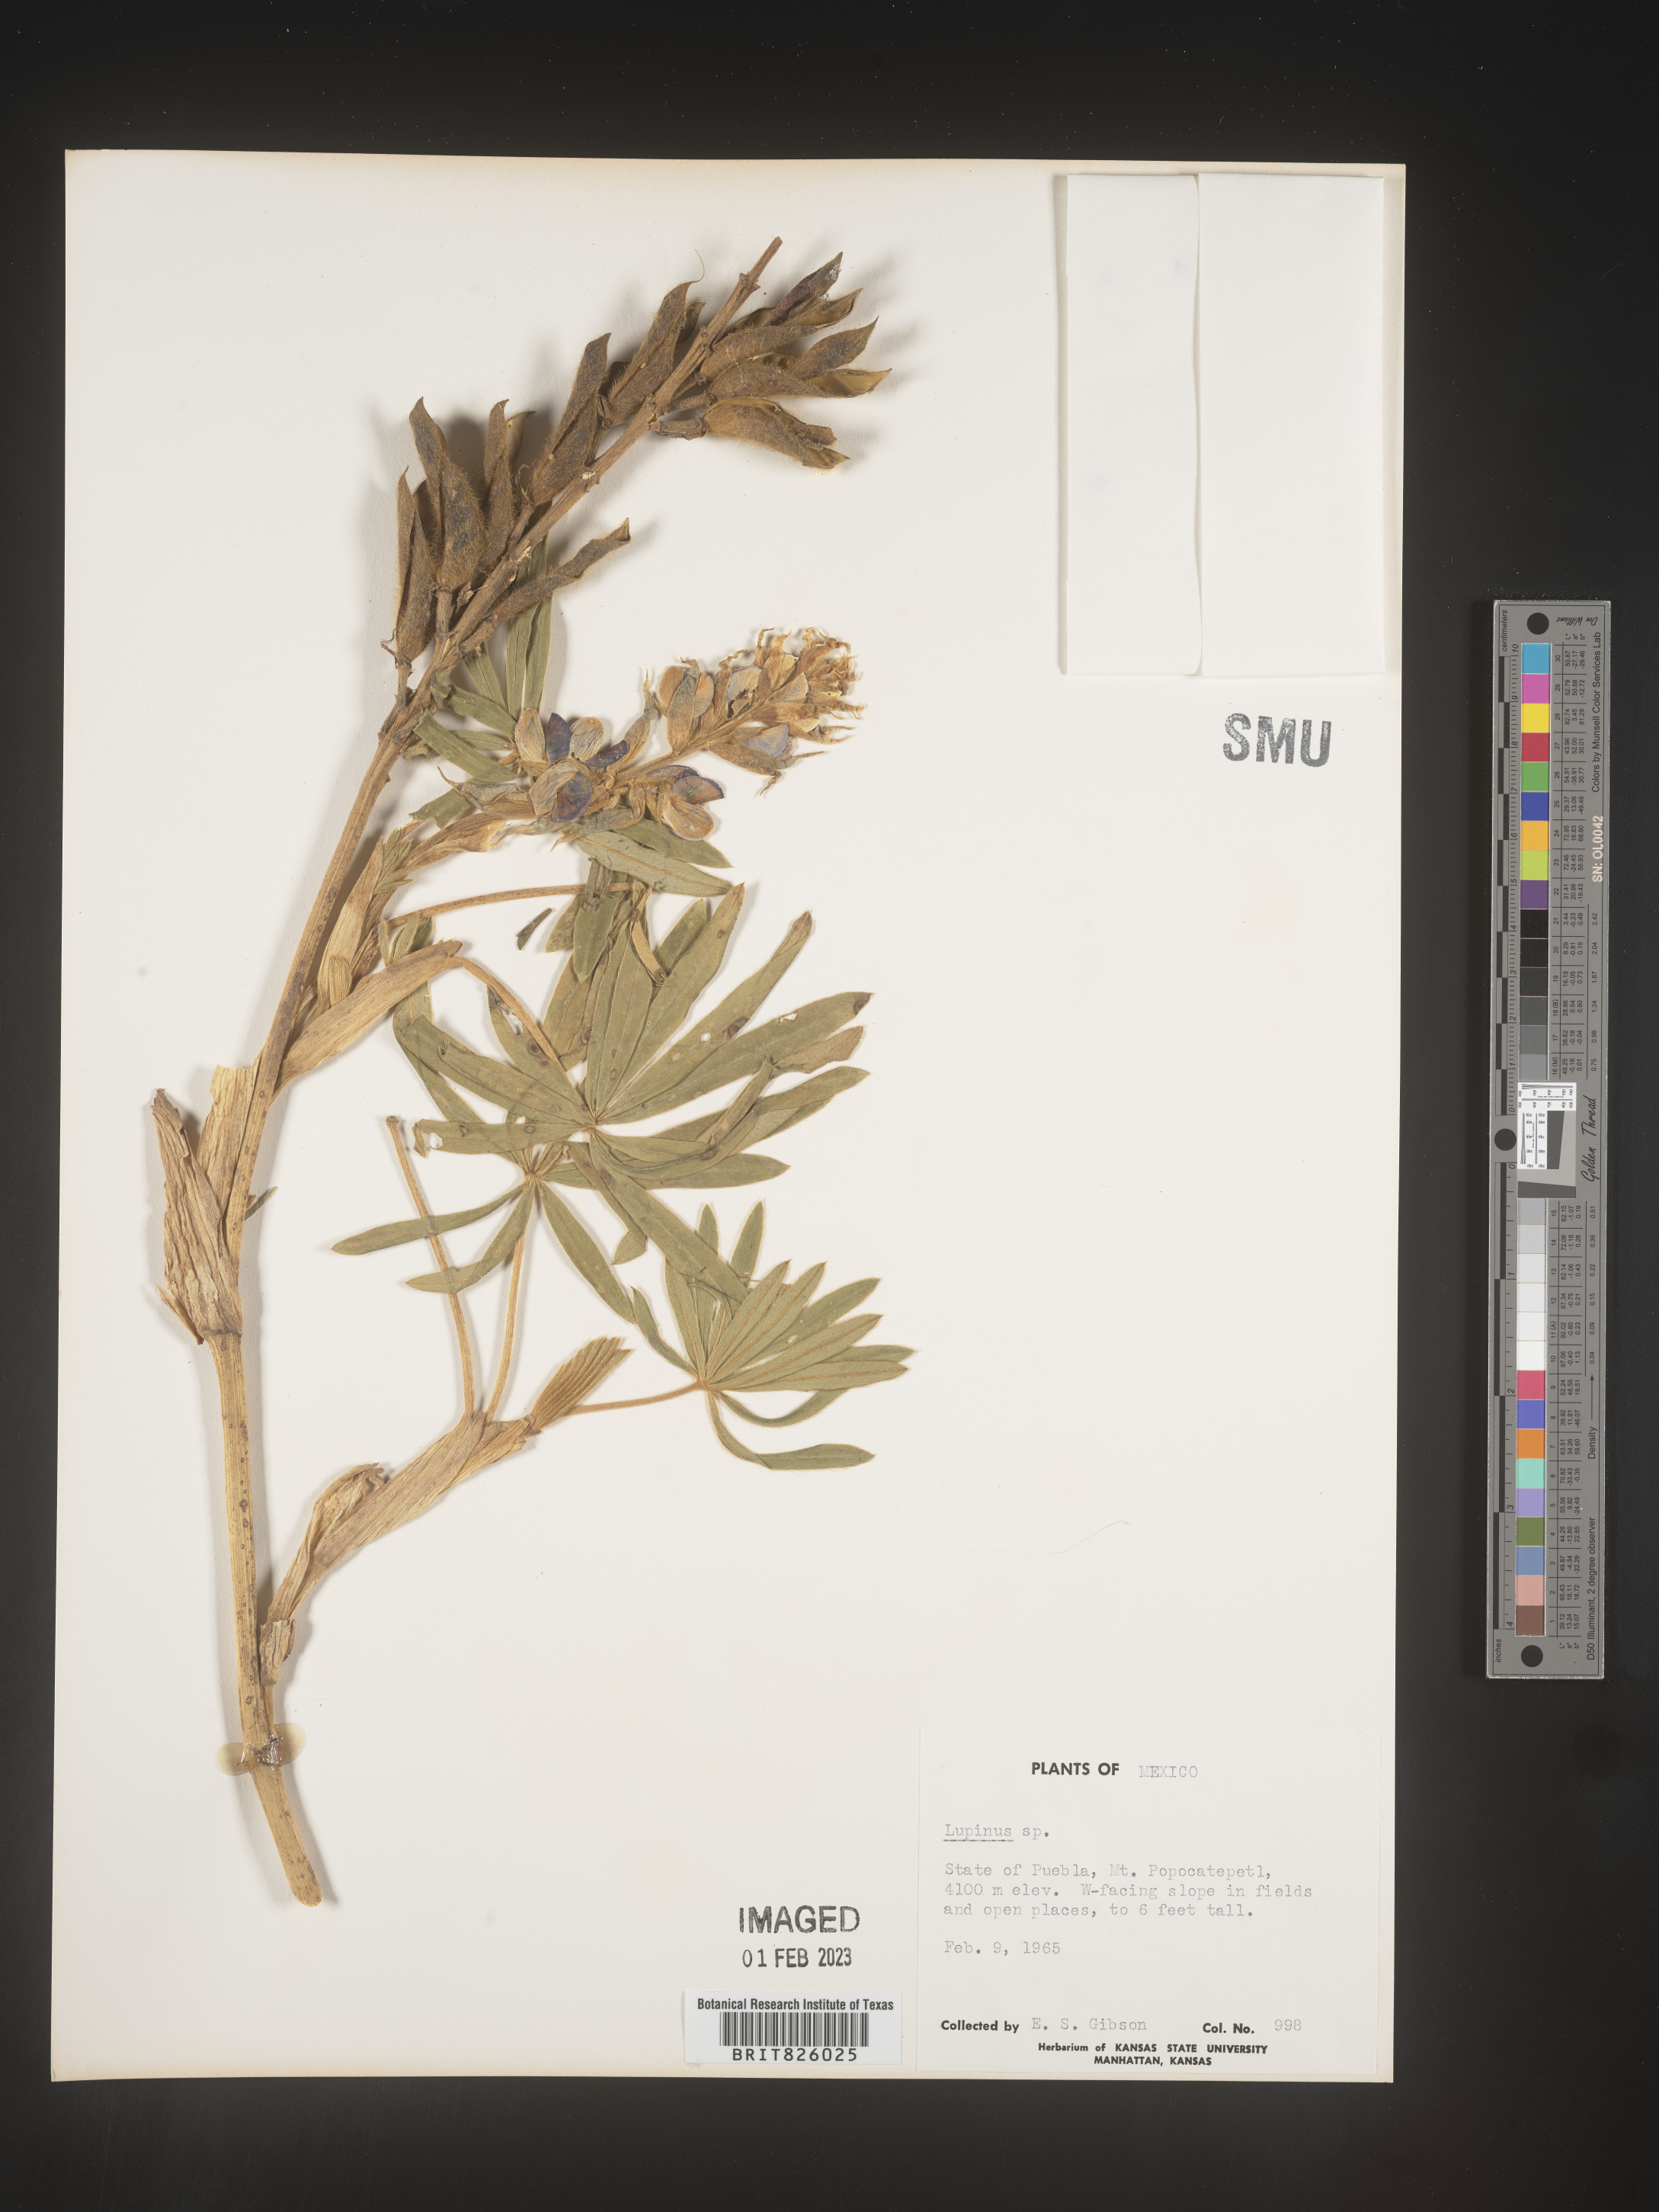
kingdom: Plantae
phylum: Tracheophyta
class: Magnoliopsida
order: Fabales
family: Fabaceae
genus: Lupinus
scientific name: Lupinus
